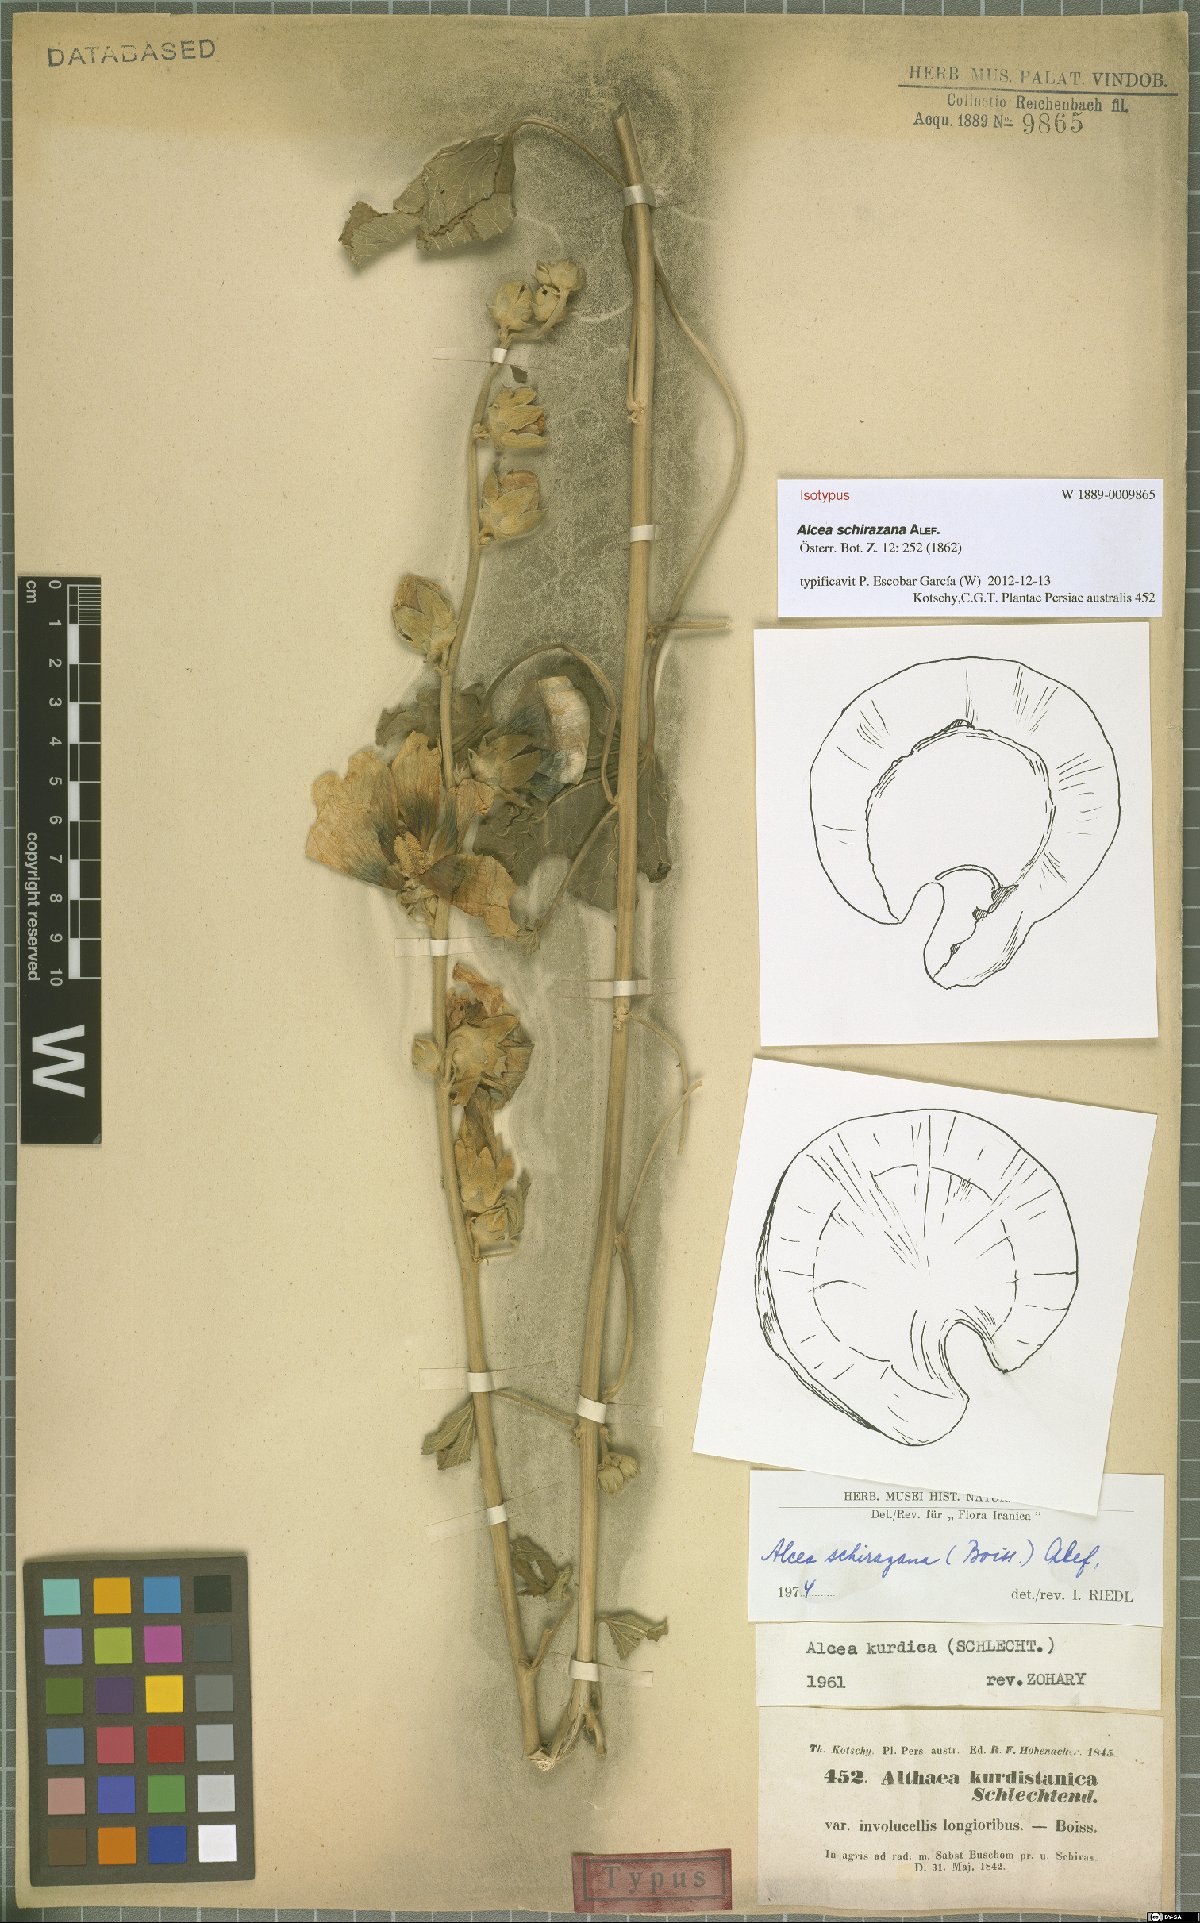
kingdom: Plantae
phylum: Tracheophyta
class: Magnoliopsida
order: Malvales
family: Malvaceae
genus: Alcea
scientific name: Alcea schirazana
